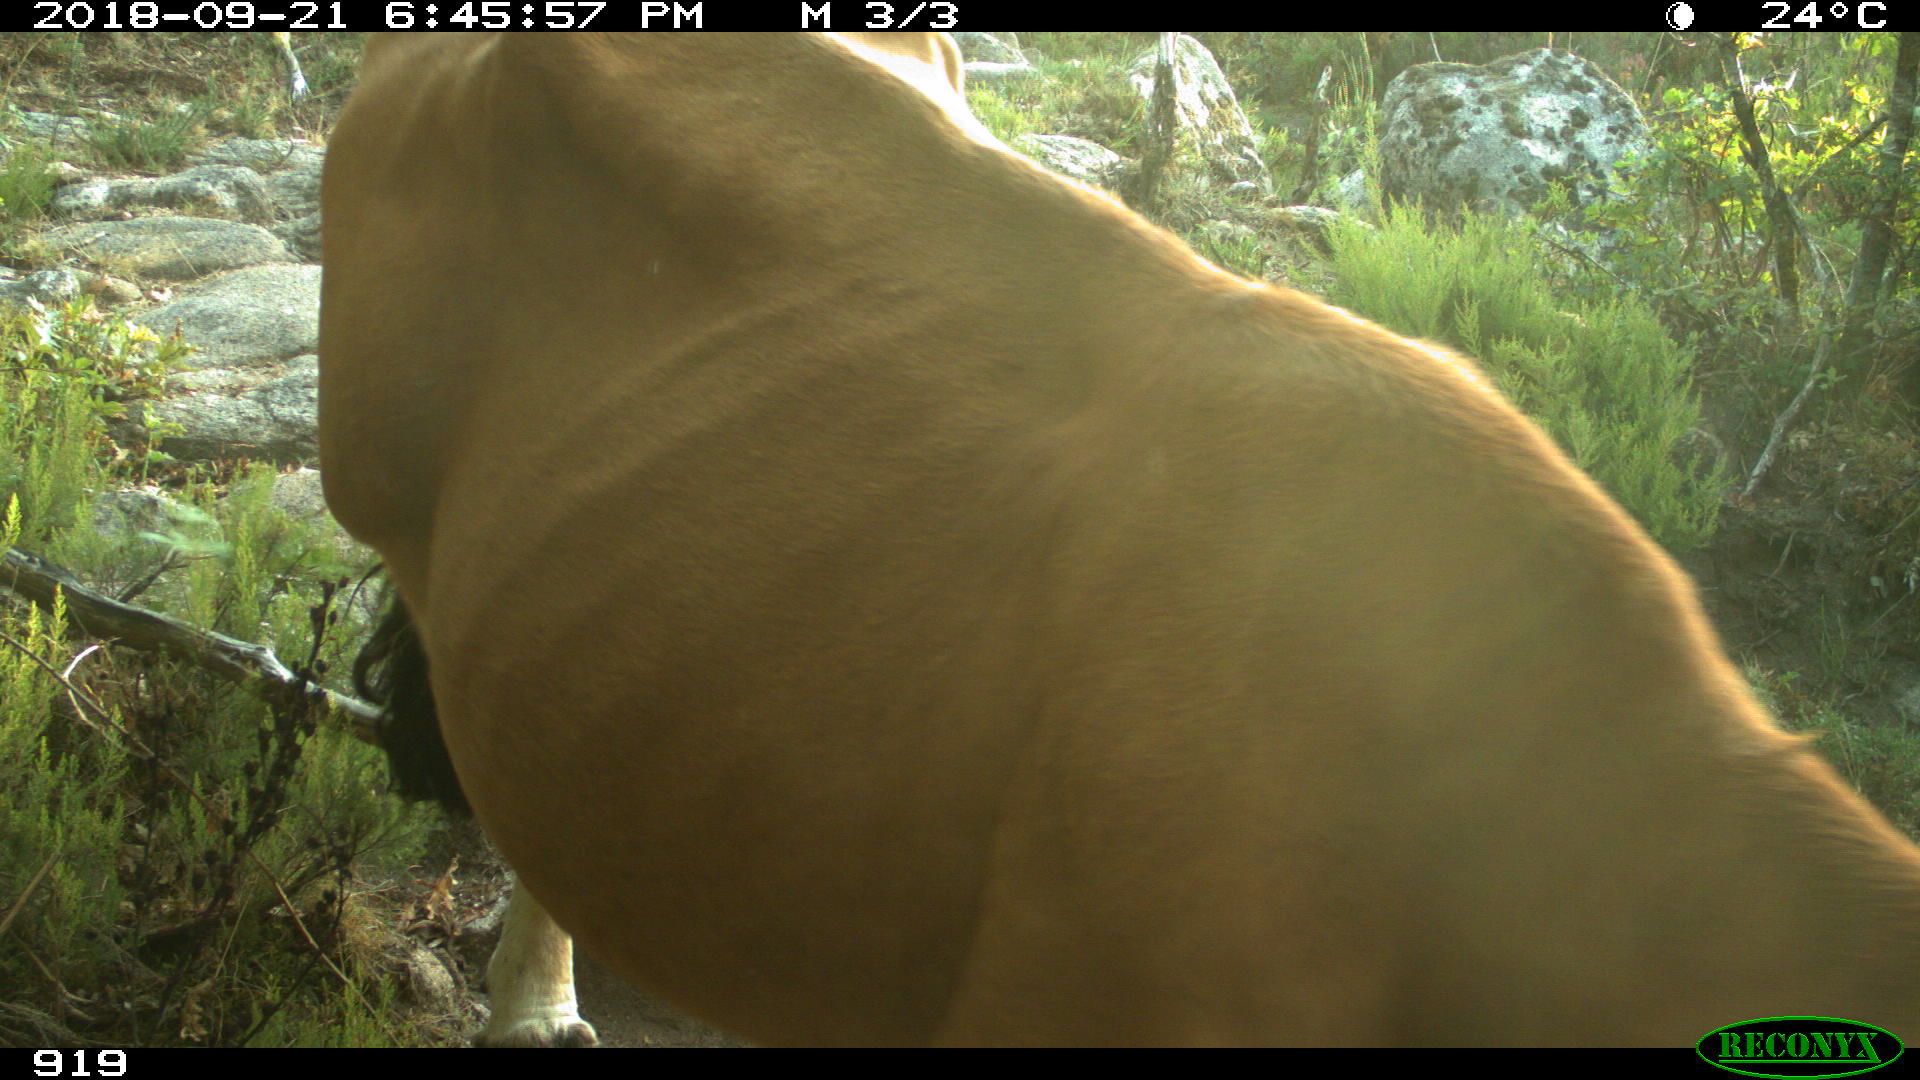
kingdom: Animalia
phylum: Chordata
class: Mammalia
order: Artiodactyla
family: Bovidae
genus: Bos
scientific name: Bos taurus
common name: Domesticated cattle
